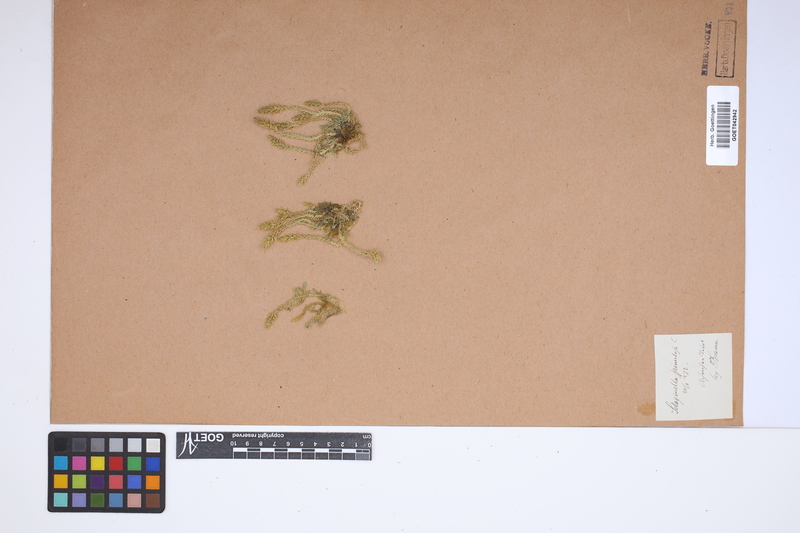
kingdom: Plantae
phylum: Tracheophyta
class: Lycopodiopsida
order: Selaginellales
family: Selaginellaceae
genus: Selaginella
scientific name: Selaginella selaginoides
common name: Prickly mountain-moss
